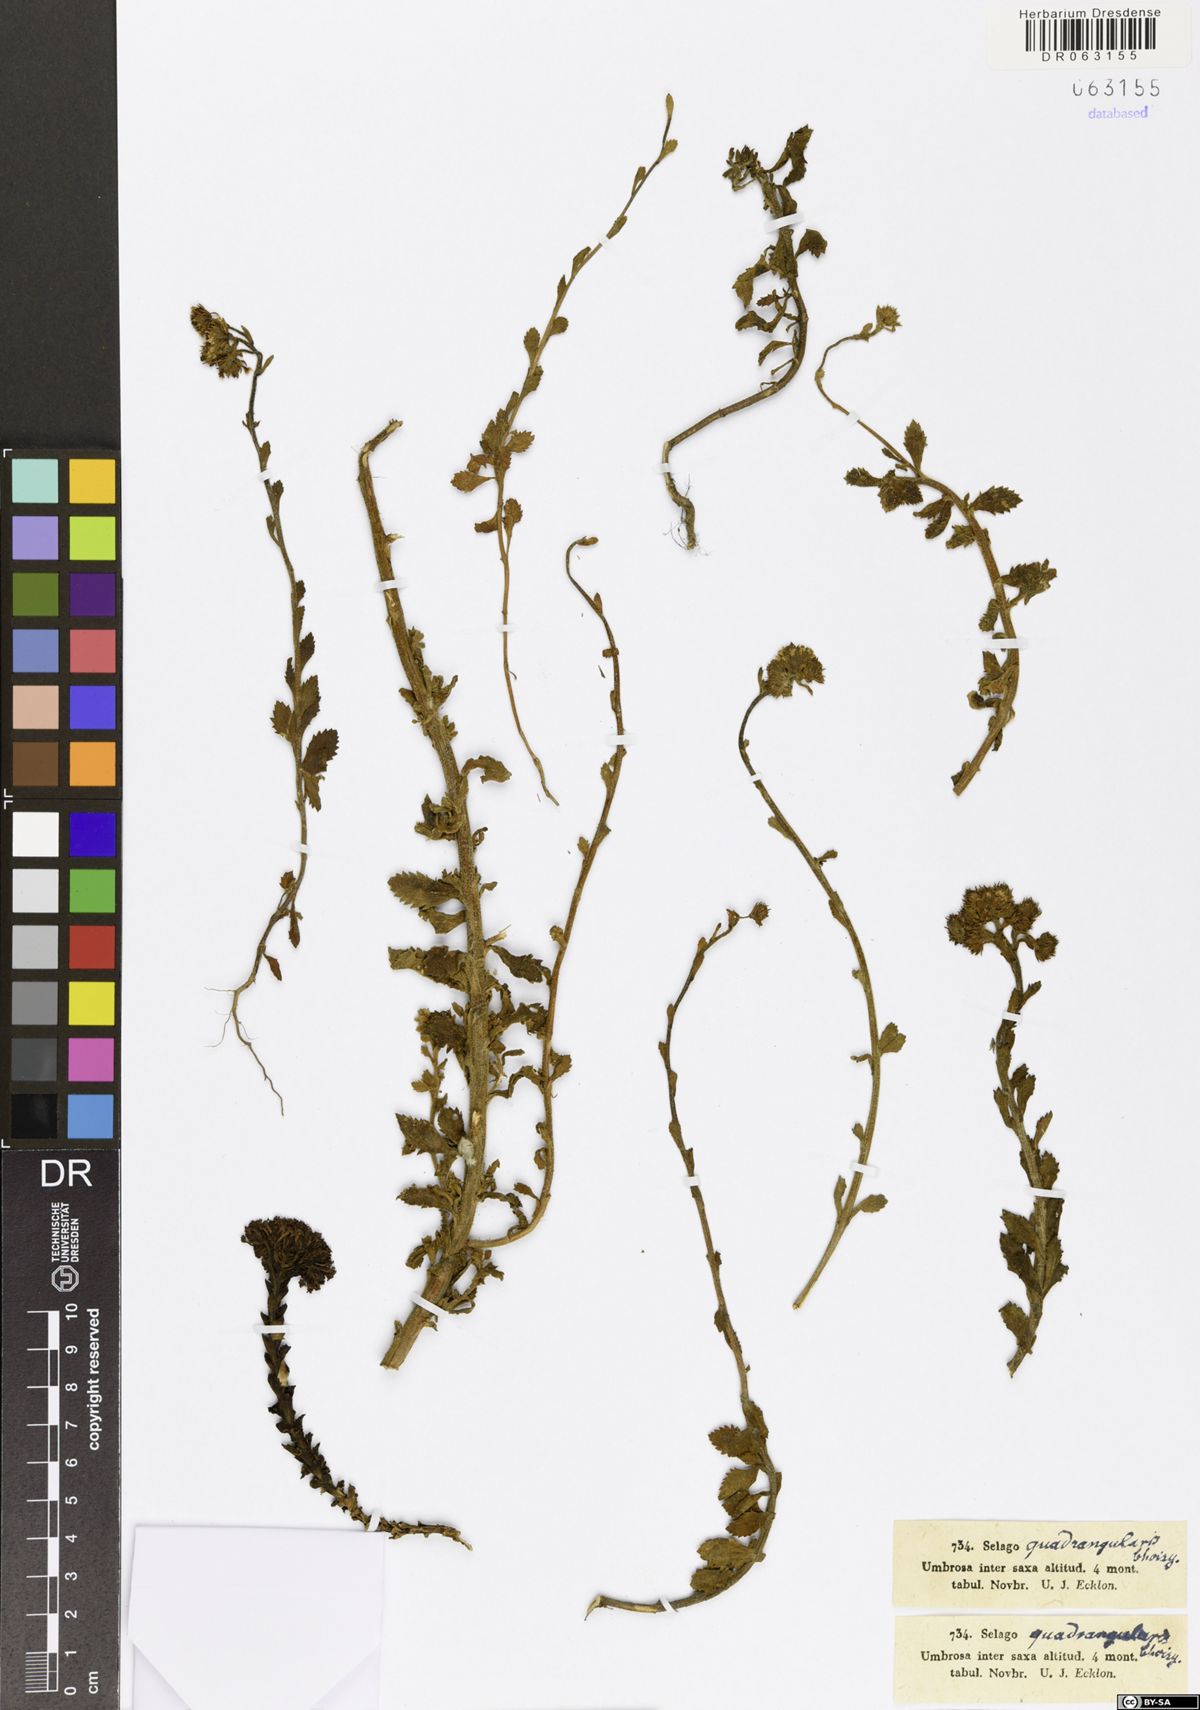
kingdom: Plantae
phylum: Tracheophyta
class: Magnoliopsida
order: Lamiales
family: Scrophulariaceae
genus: Pseudoselago
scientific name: Pseudoselago quadrangularis
